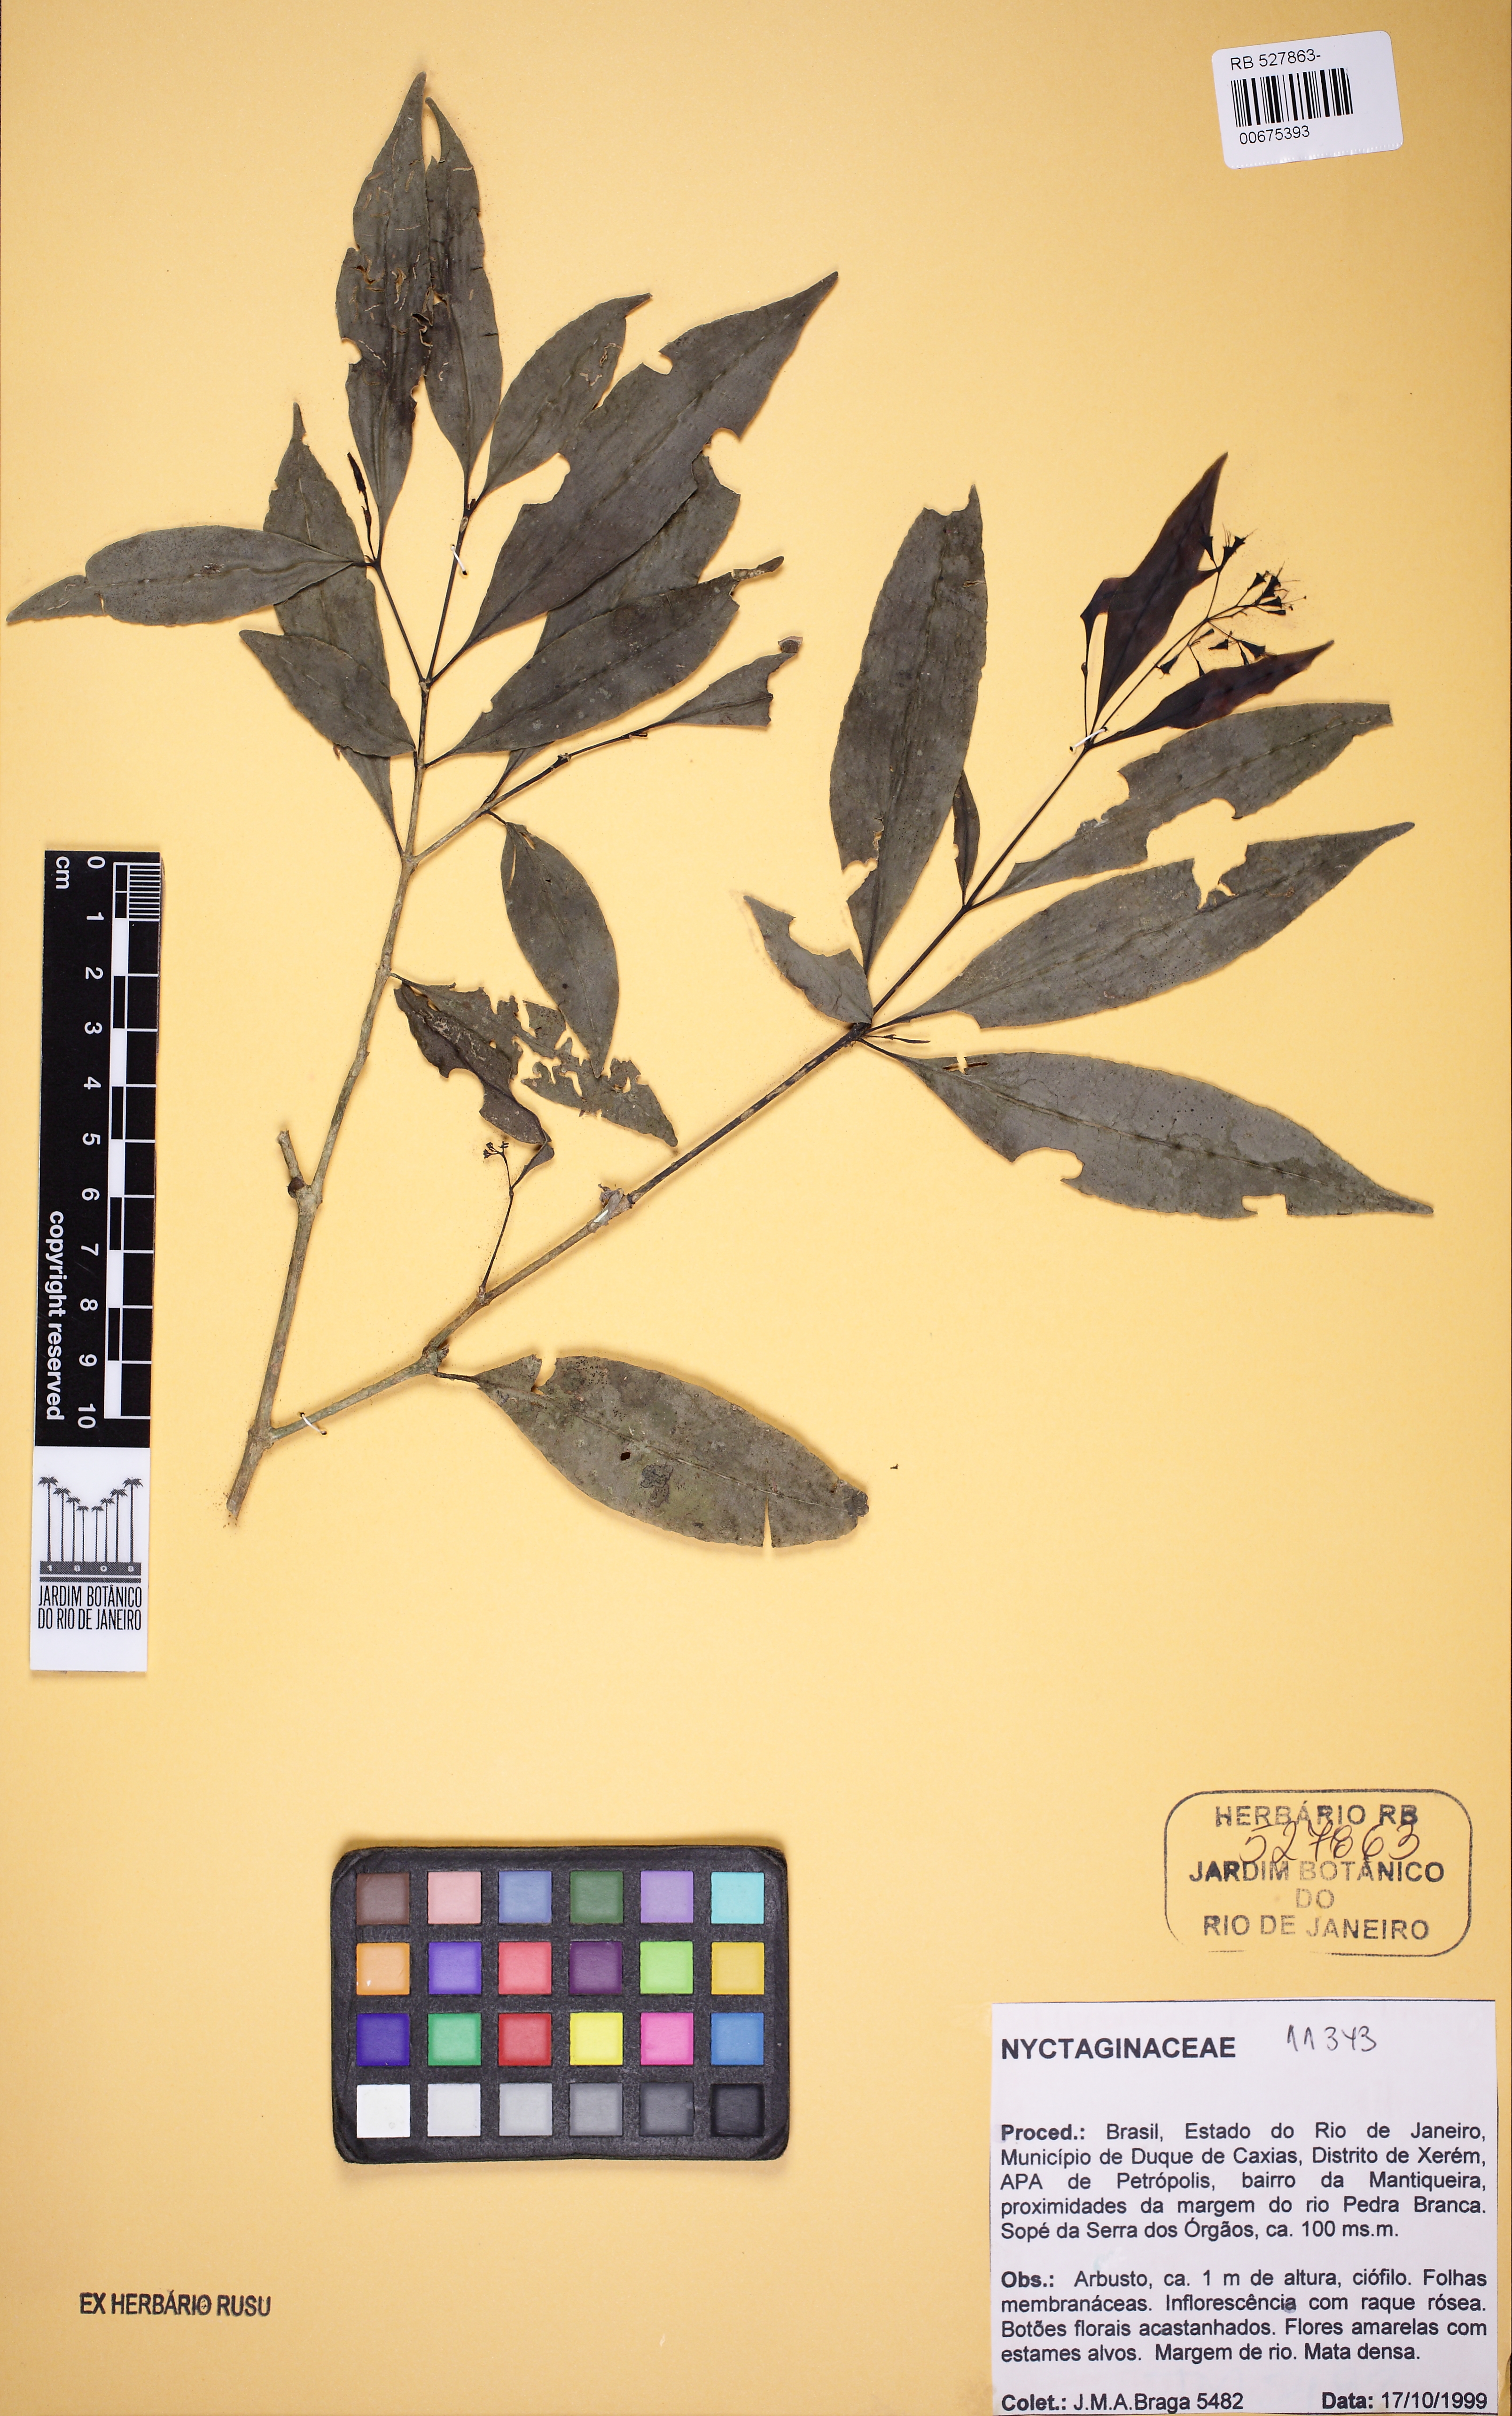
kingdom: Plantae
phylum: Tracheophyta
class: Magnoliopsida
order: Caryophyllales
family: Nyctaginaceae
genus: Guapira
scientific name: Guapira opposita
